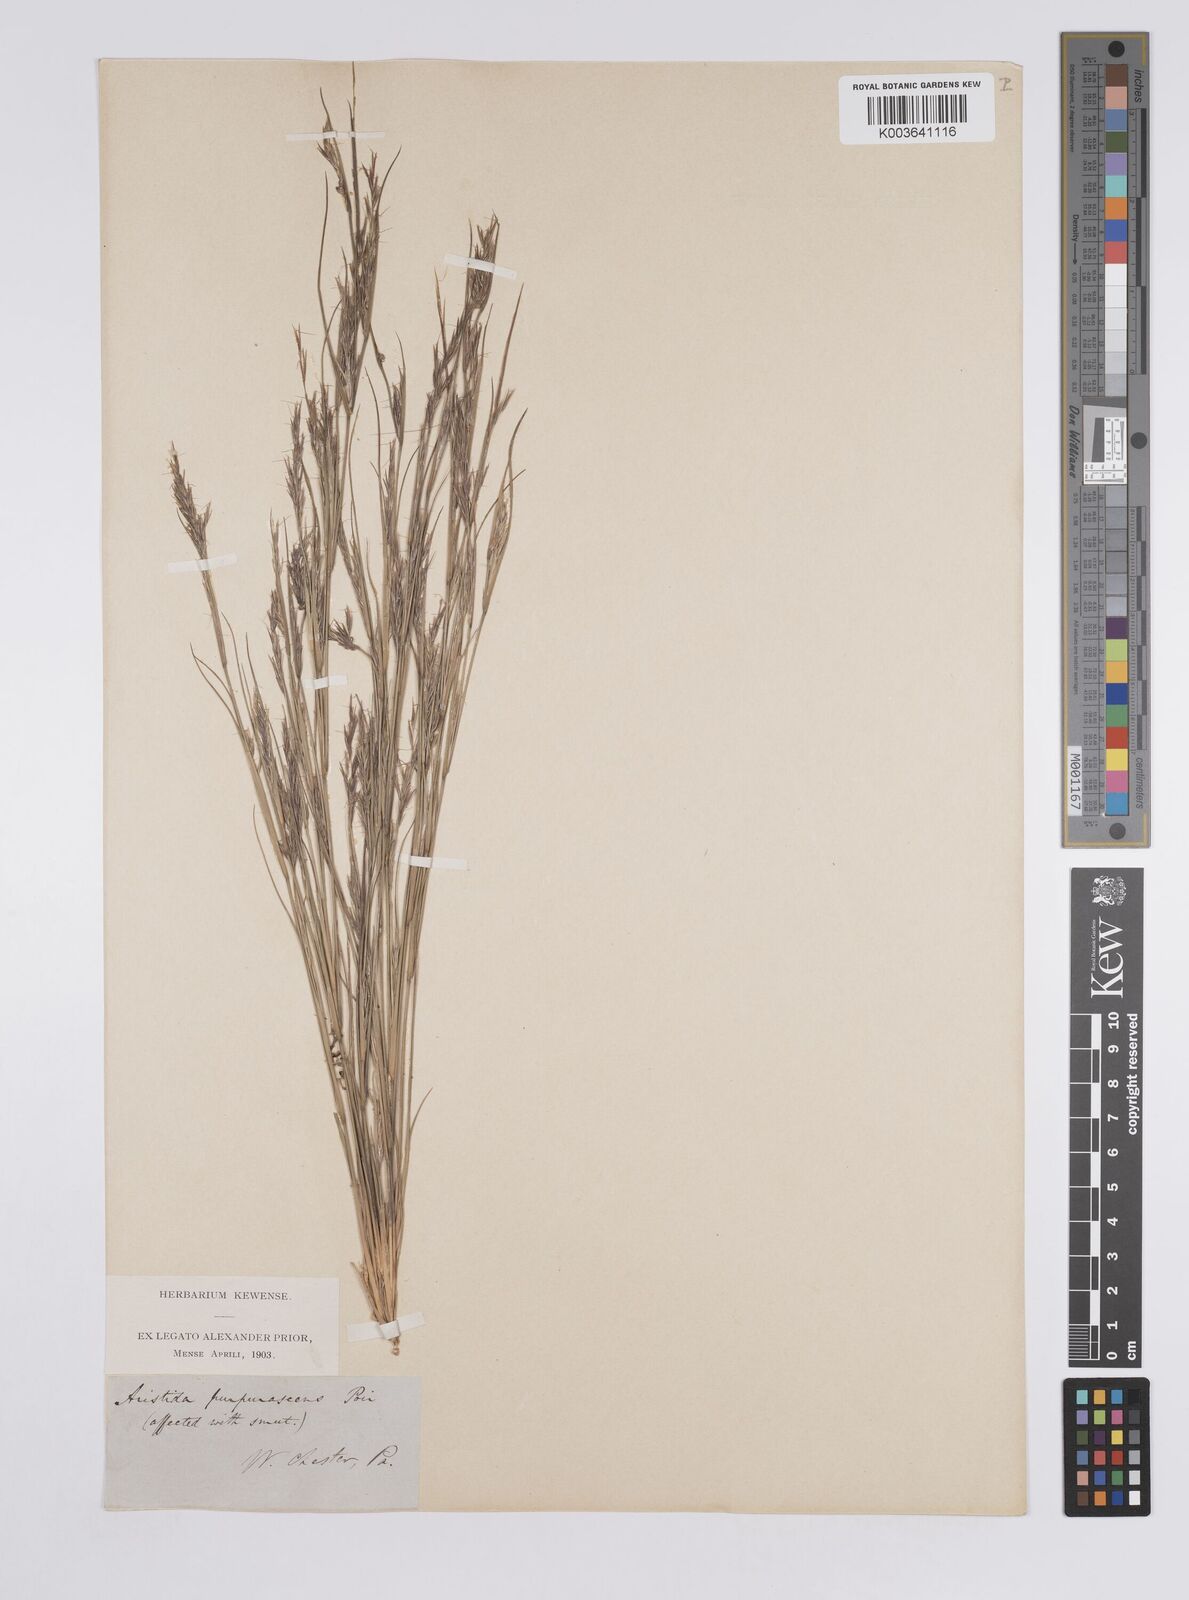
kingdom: Plantae
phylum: Tracheophyta
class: Liliopsida
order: Poales
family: Poaceae
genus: Aristida
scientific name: Aristida purpurascens
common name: Arrow-feather
